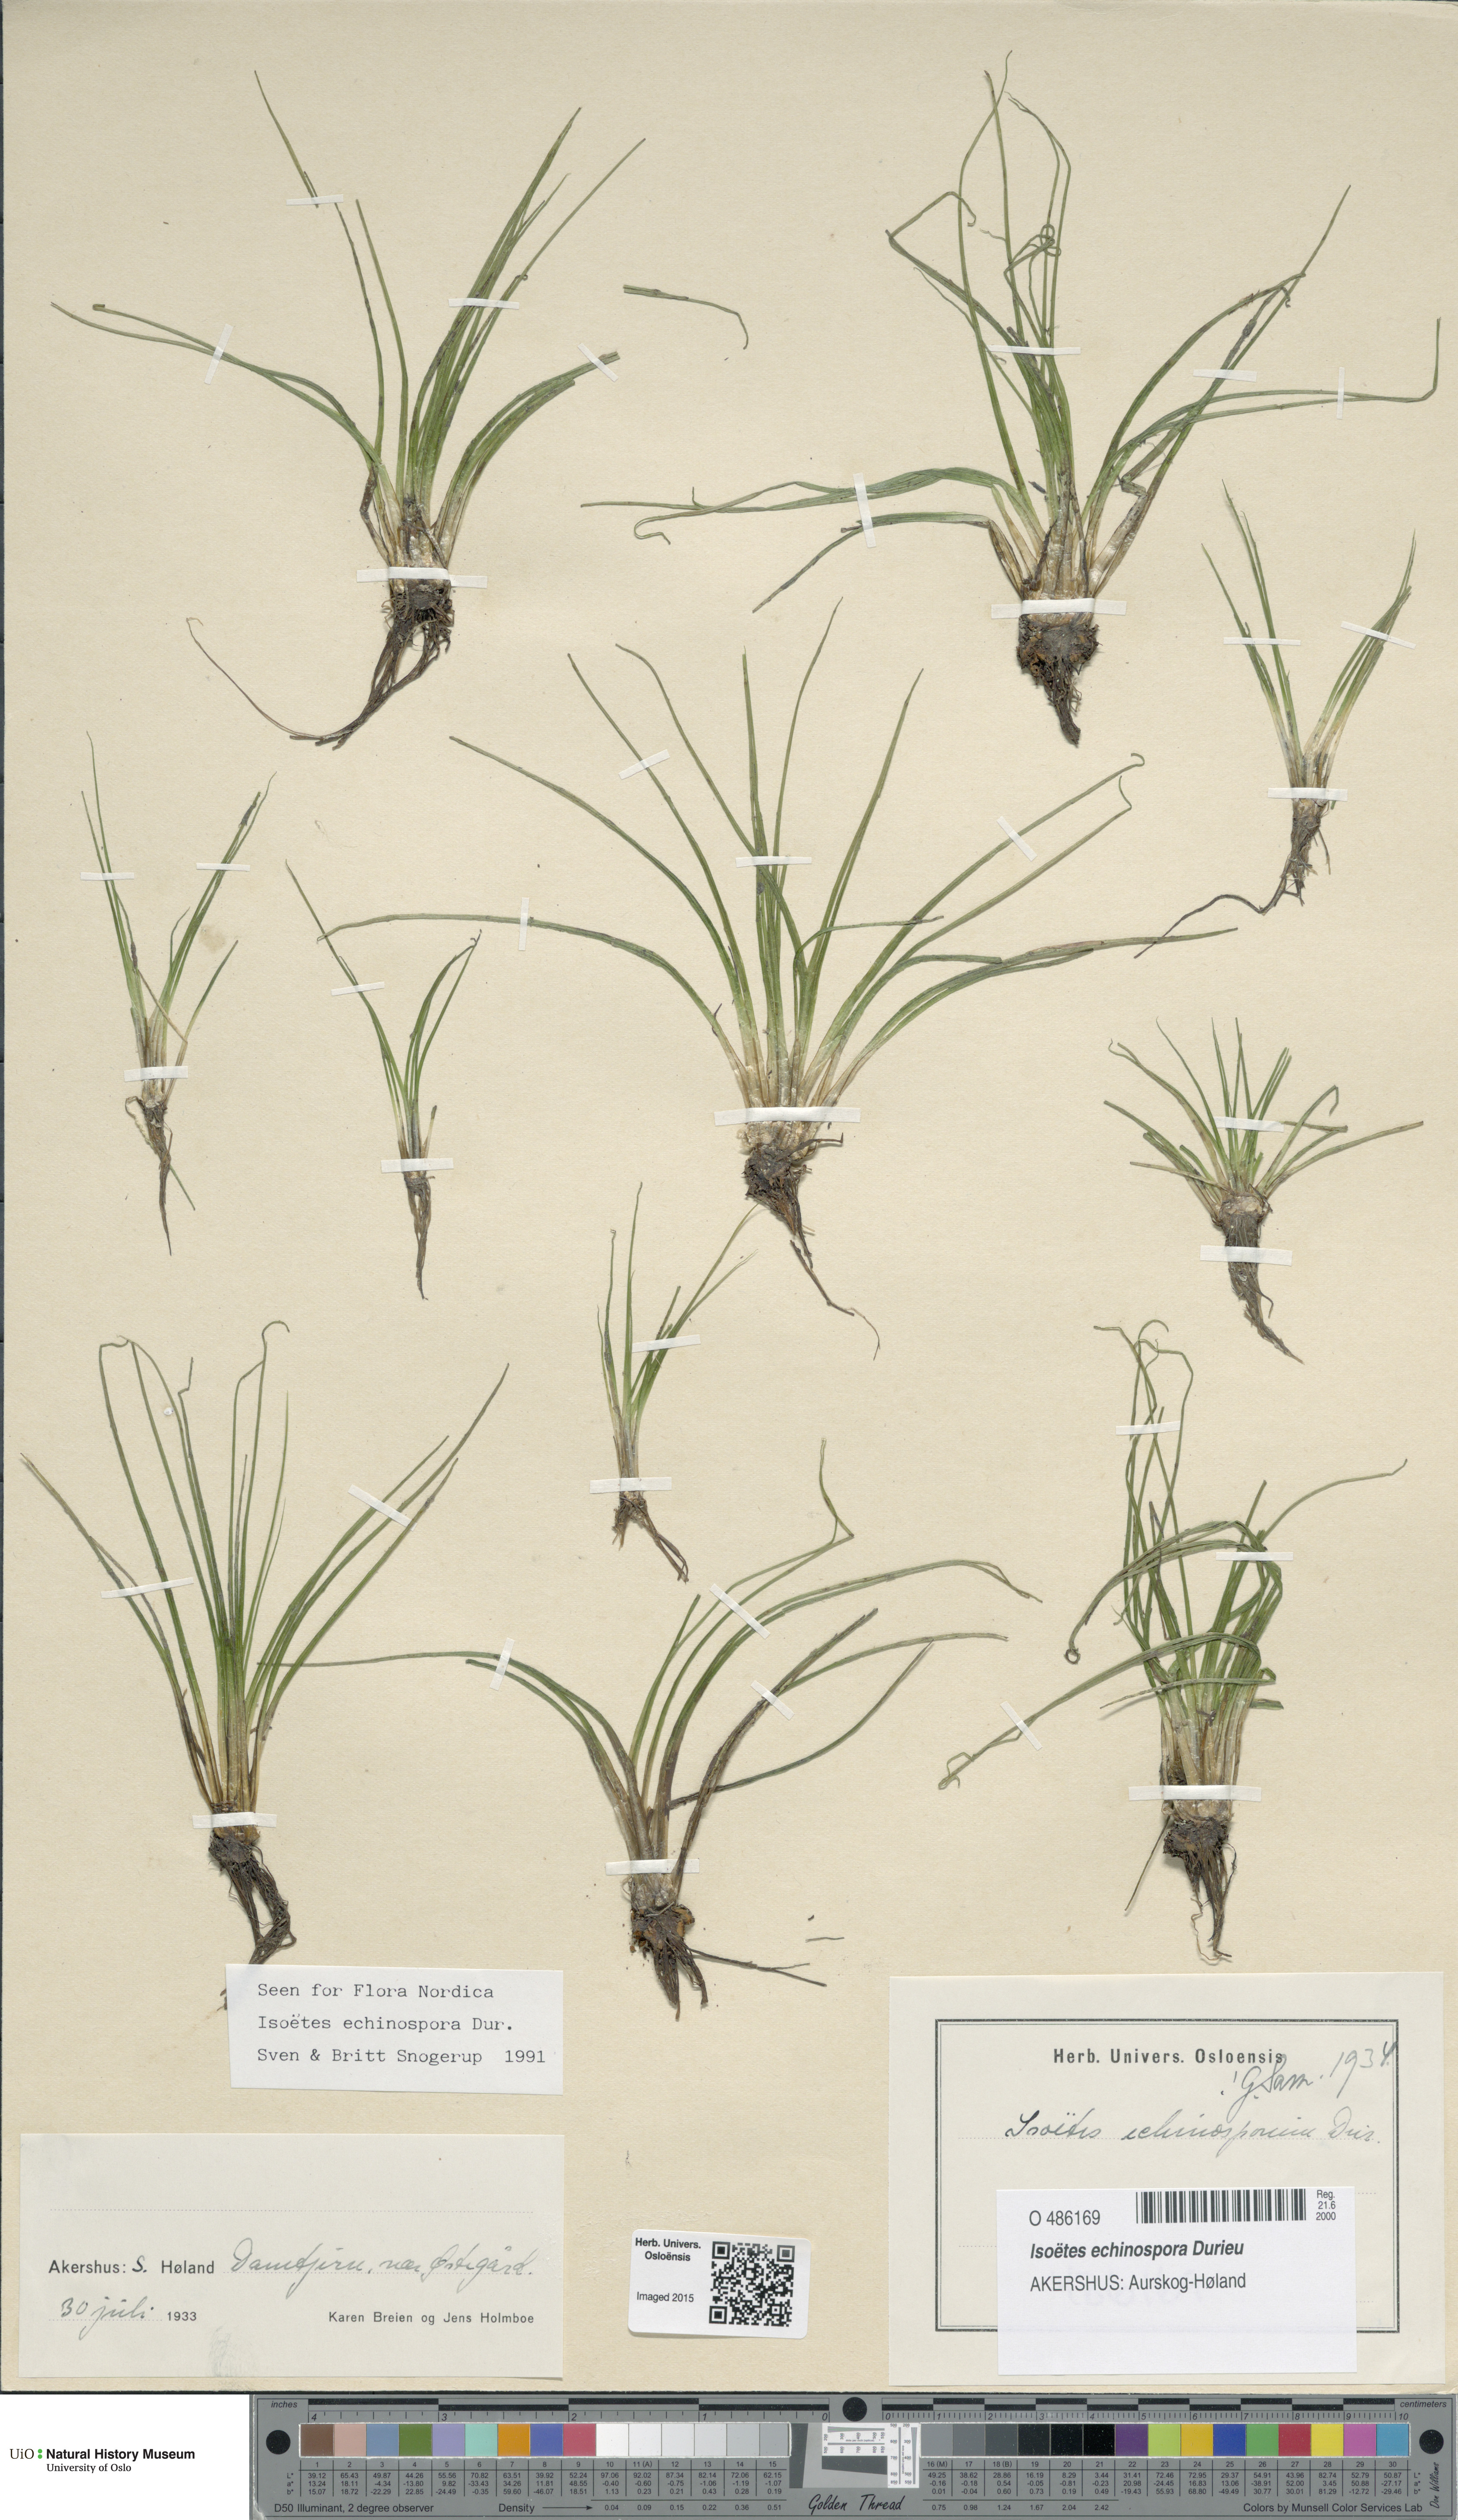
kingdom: Plantae
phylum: Tracheophyta
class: Lycopodiopsida
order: Isoetales
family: Isoetaceae
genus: Isoetes
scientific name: Isoetes echinospora
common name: Spring quillwort
